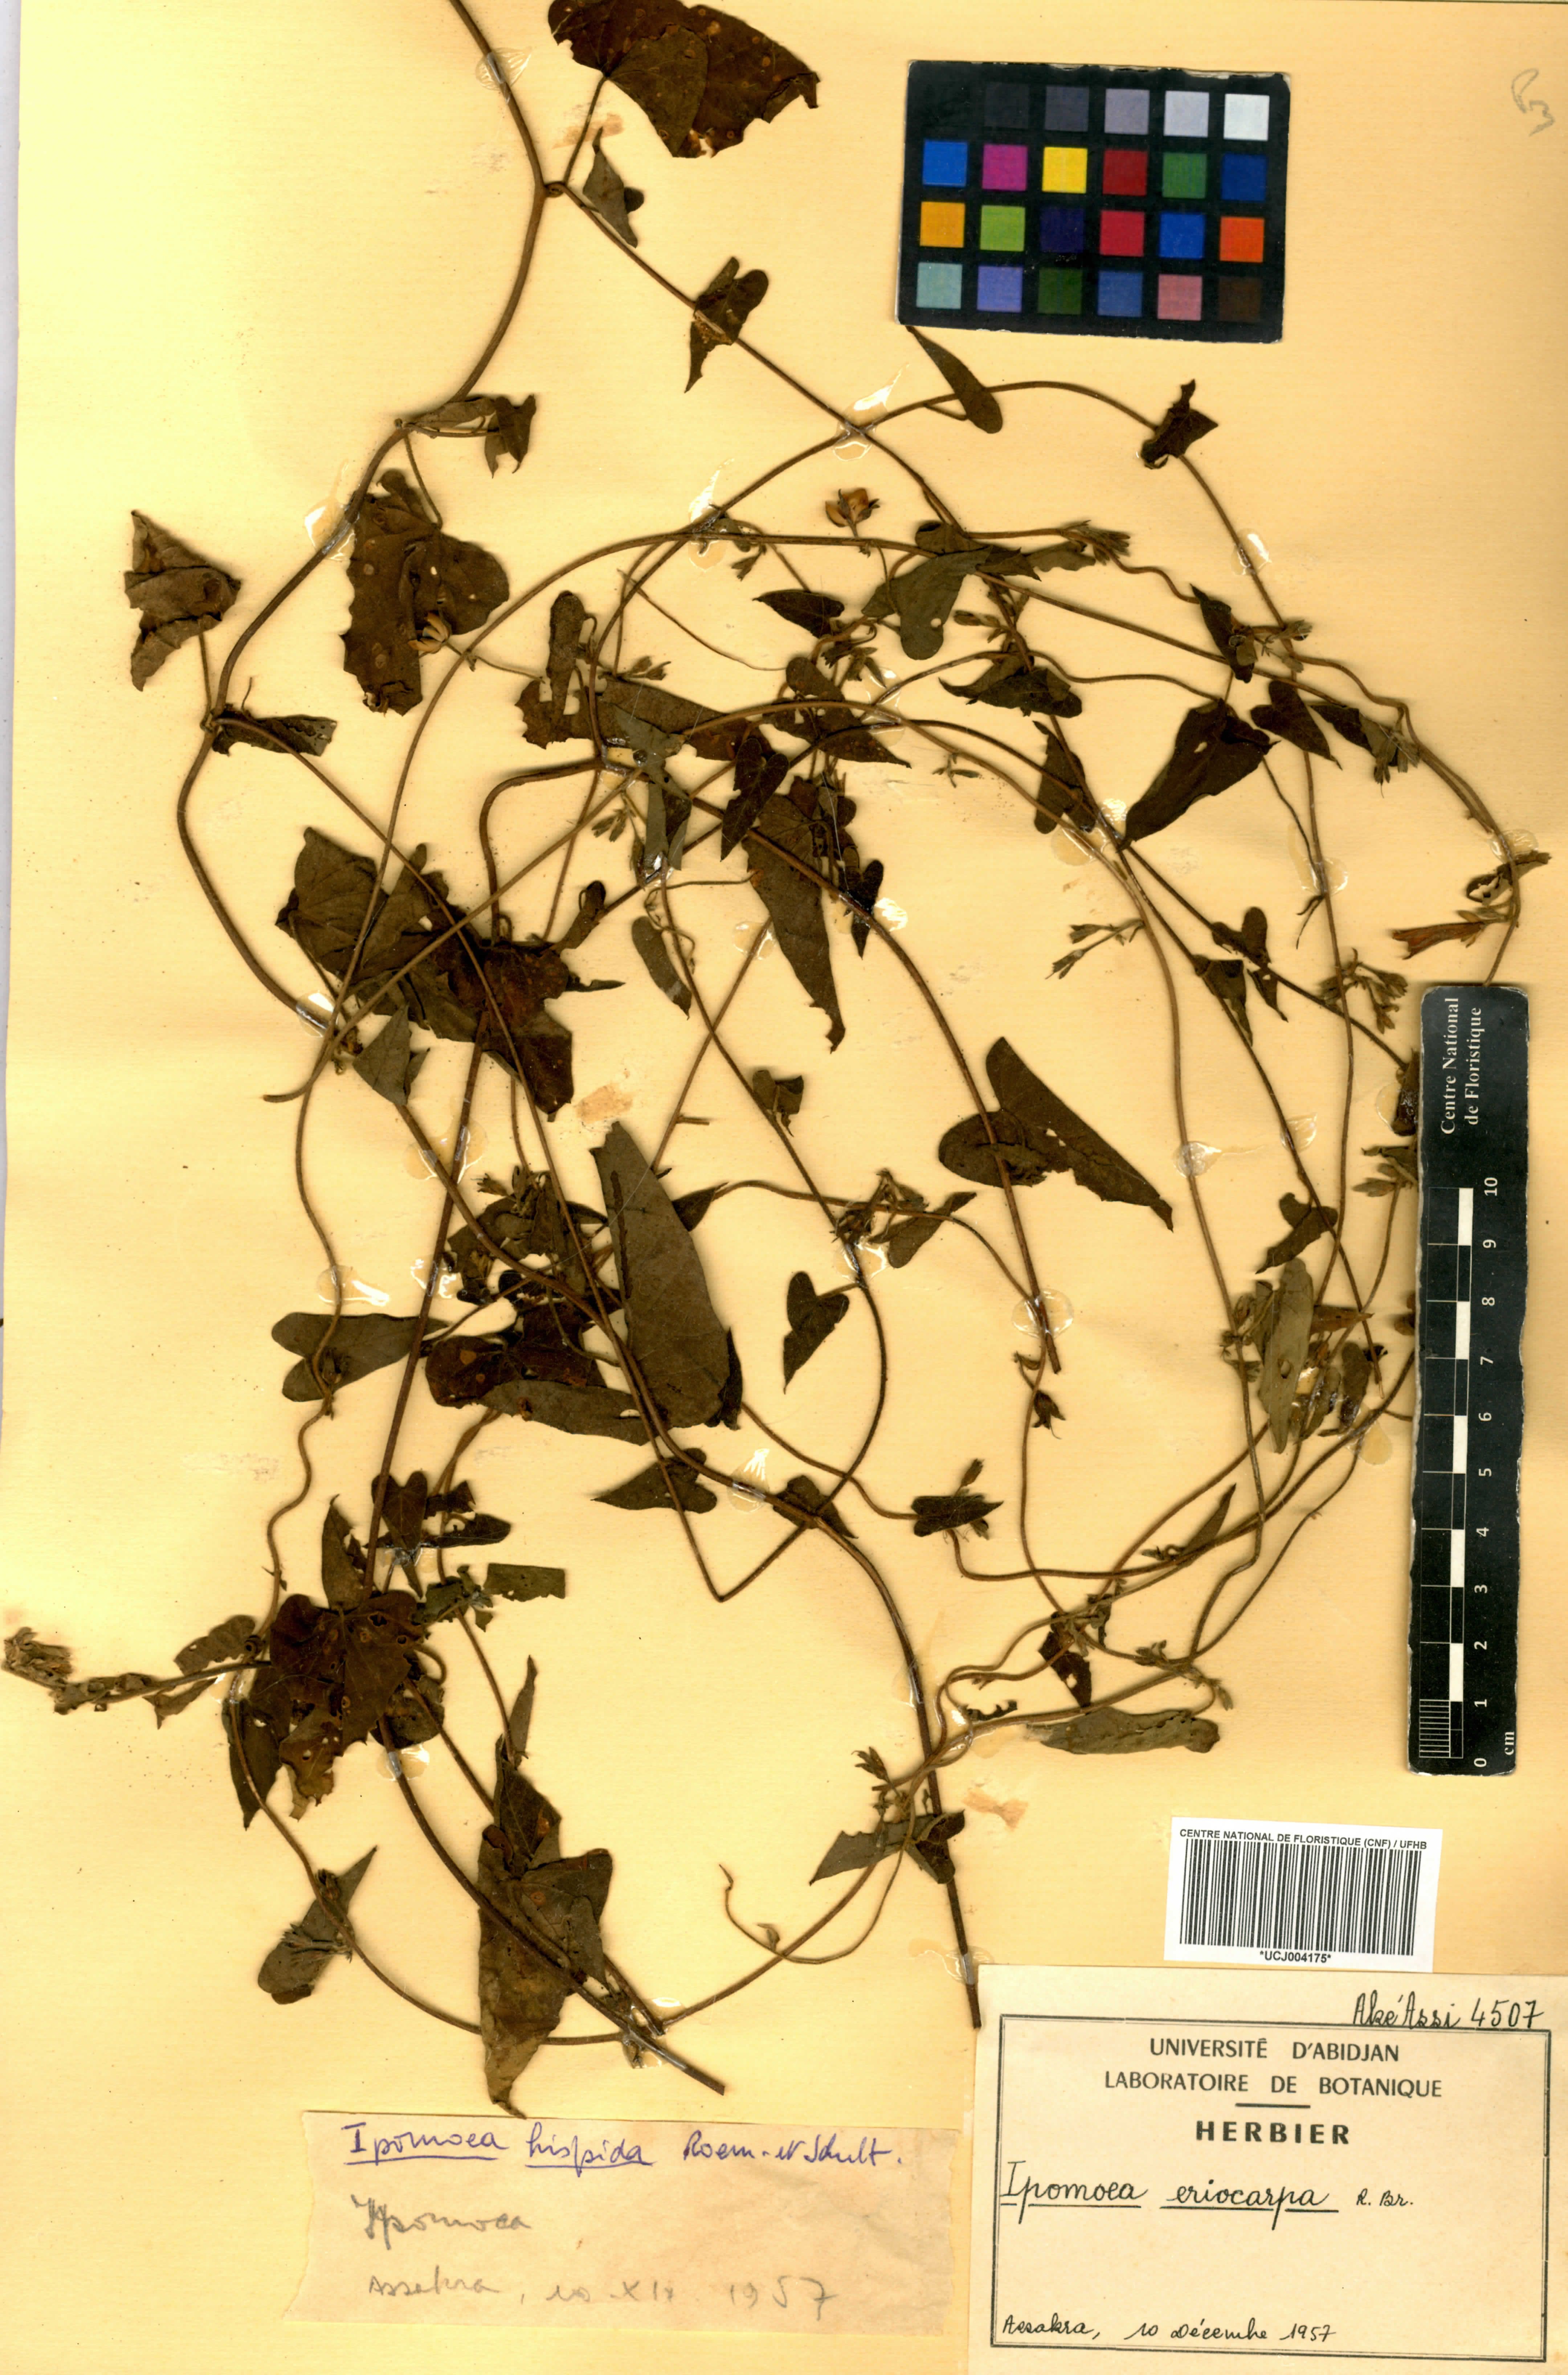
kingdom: Plantae
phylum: Tracheophyta
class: Magnoliopsida
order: Solanales
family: Convolvulaceae
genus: Ipomoea
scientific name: Ipomoea eriocarpa
